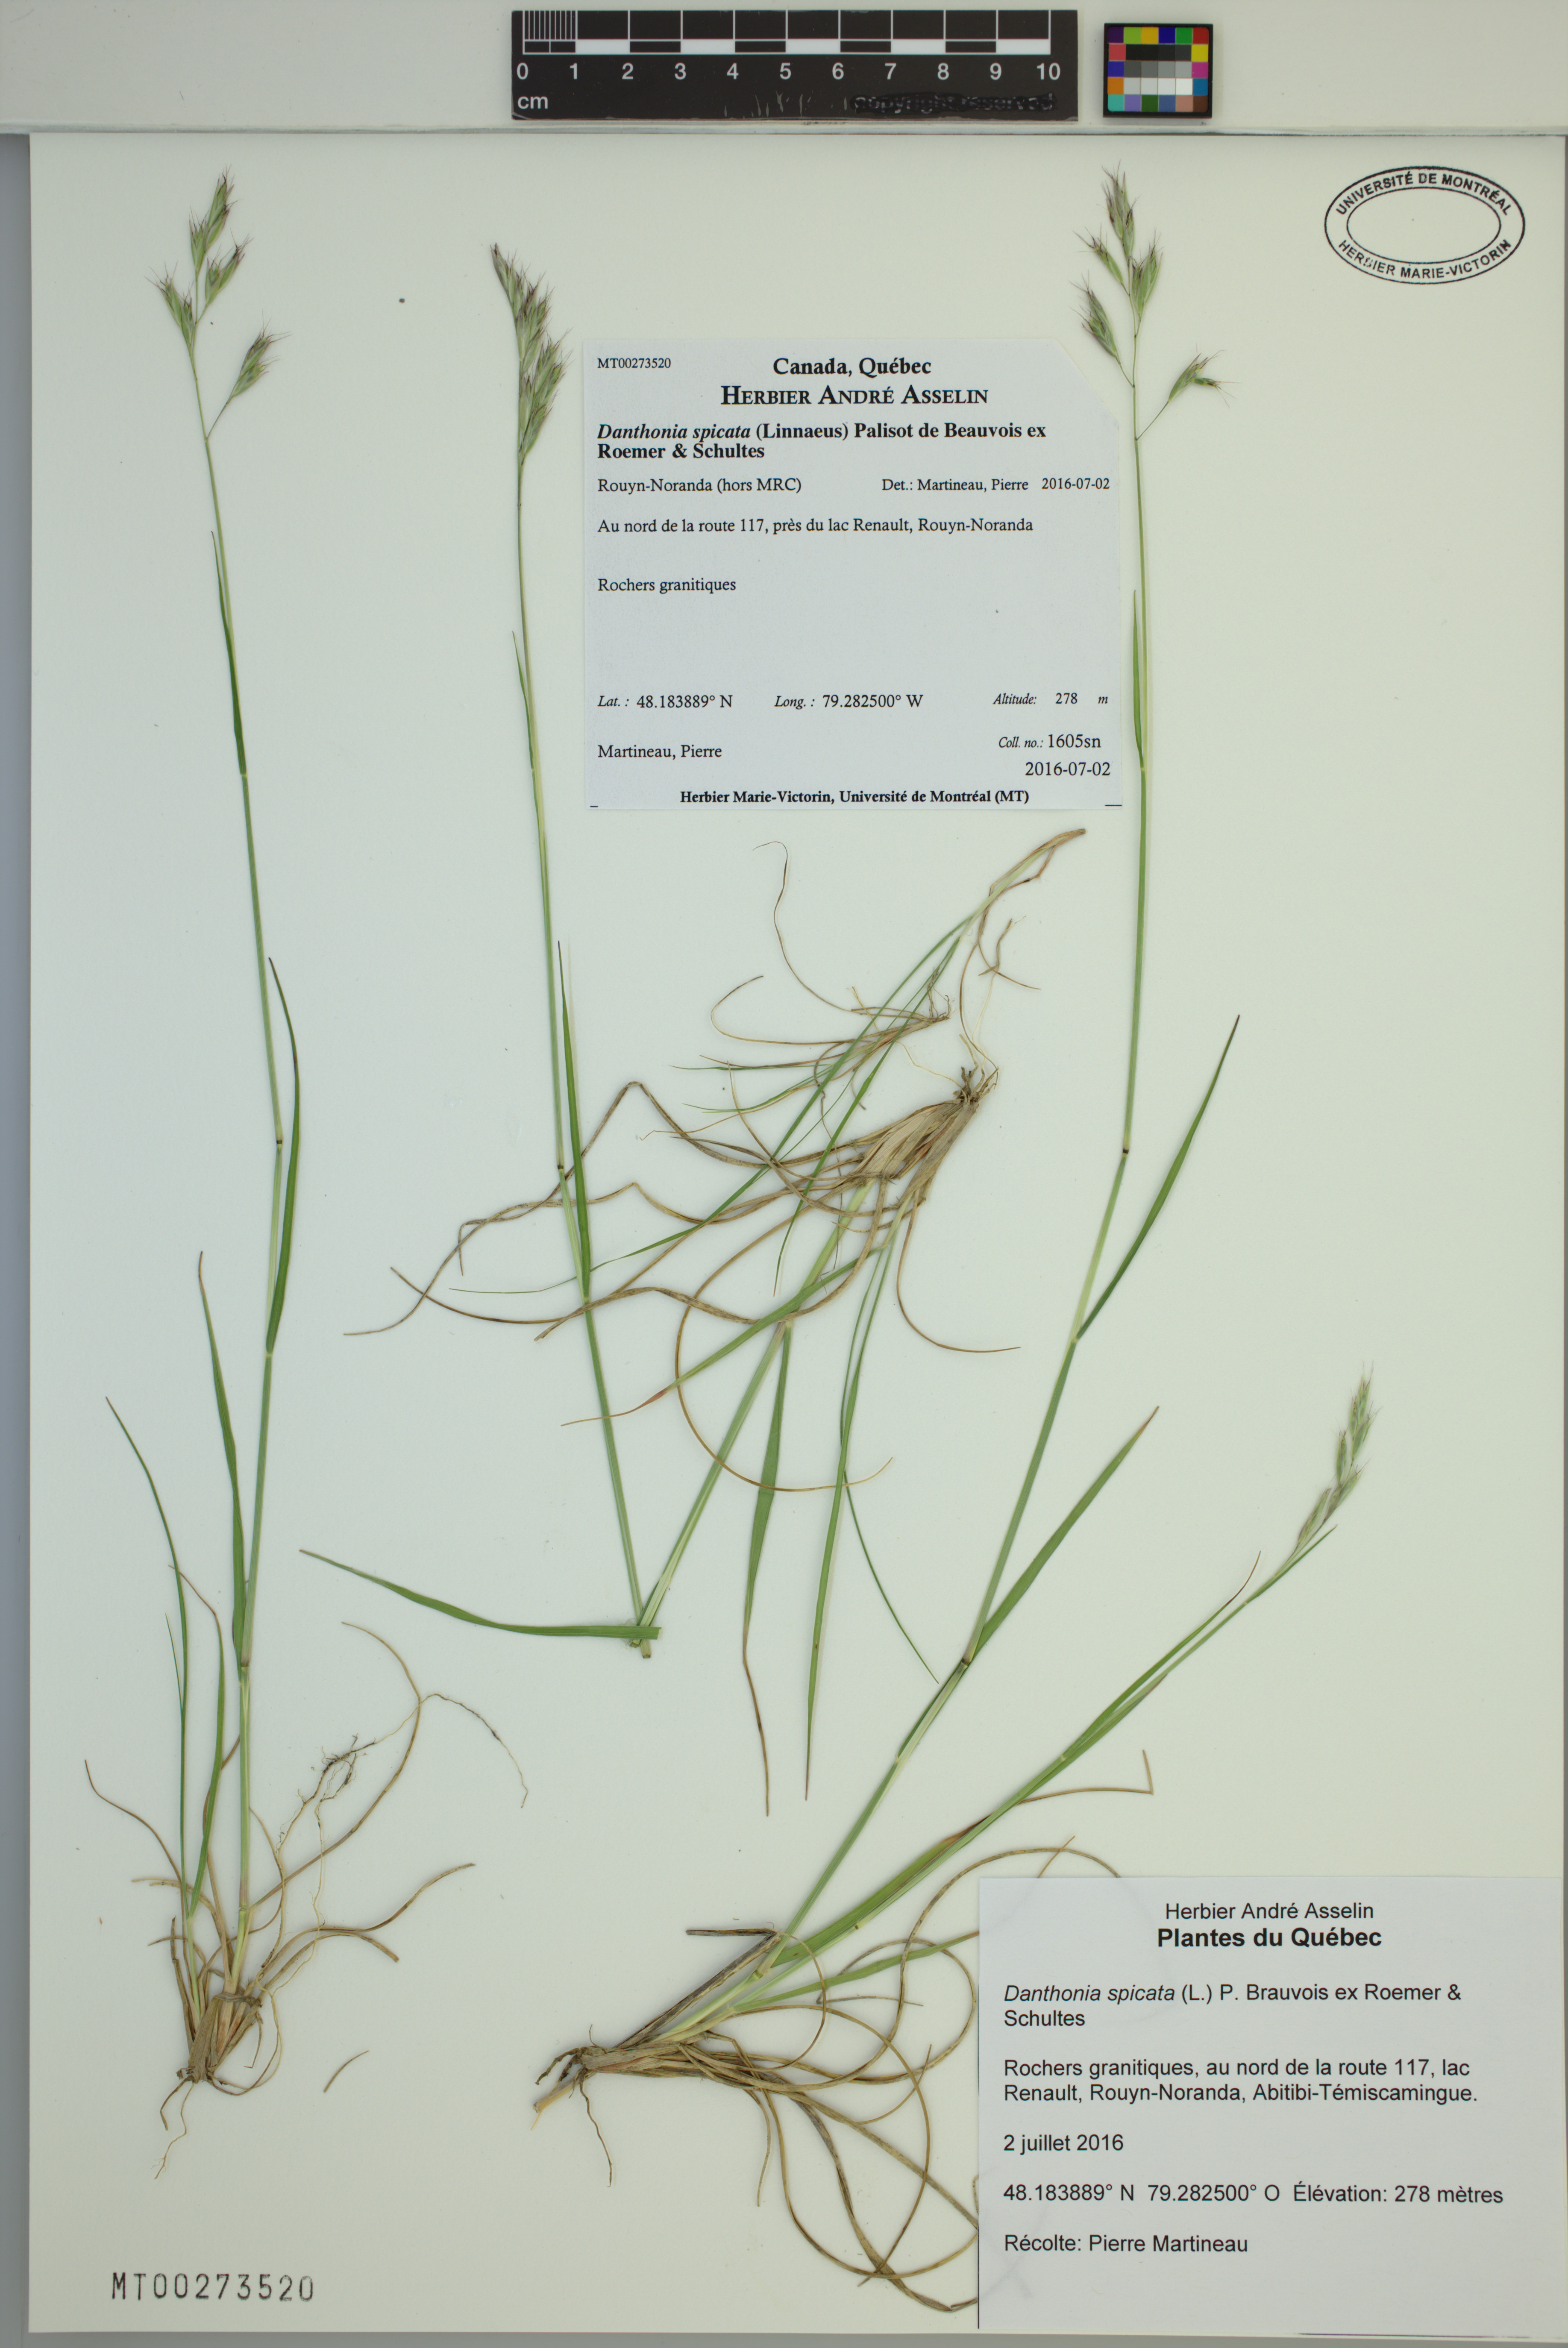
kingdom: Plantae
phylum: Tracheophyta
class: Liliopsida
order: Poales
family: Poaceae
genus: Danthonia
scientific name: Danthonia spicata
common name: Common wild oatgrass
